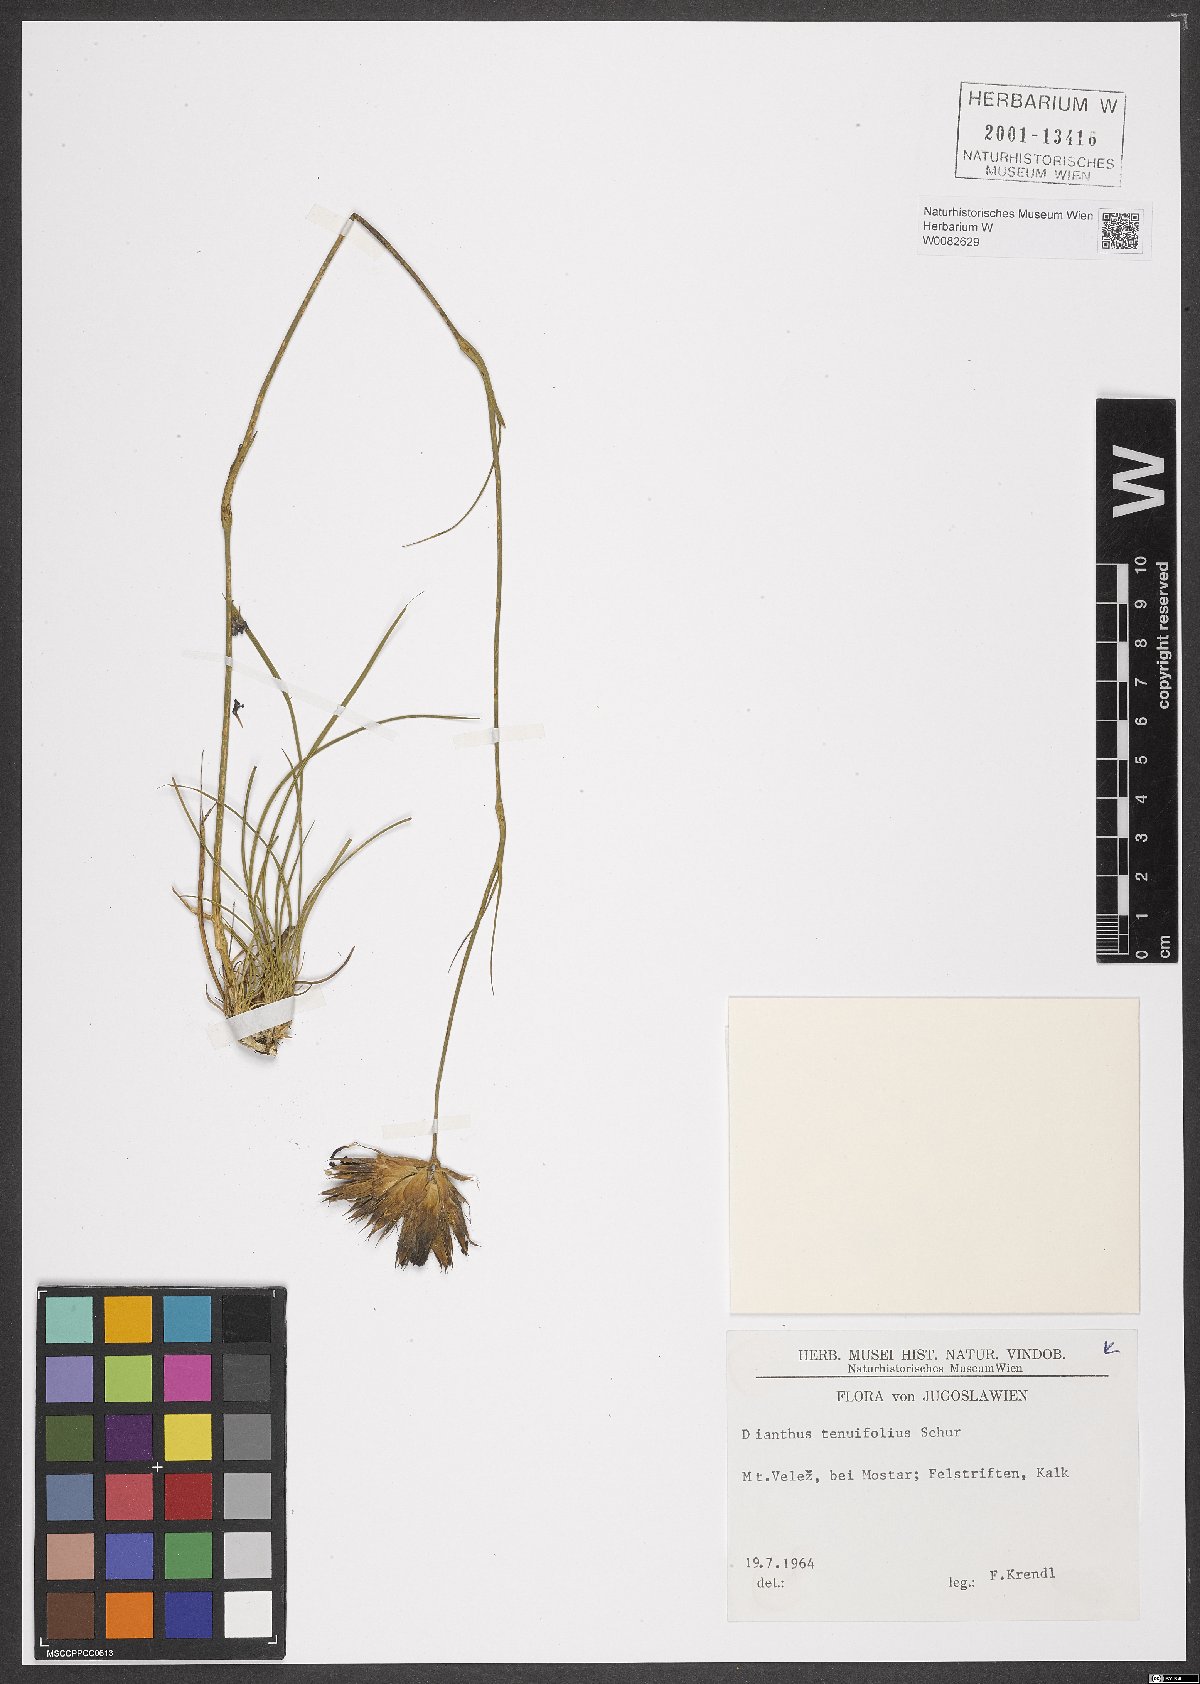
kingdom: Plantae
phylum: Tracheophyta
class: Magnoliopsida
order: Caryophyllales
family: Caryophyllaceae
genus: Dianthus
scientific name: Dianthus carthusianorum
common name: Carthusian pink
